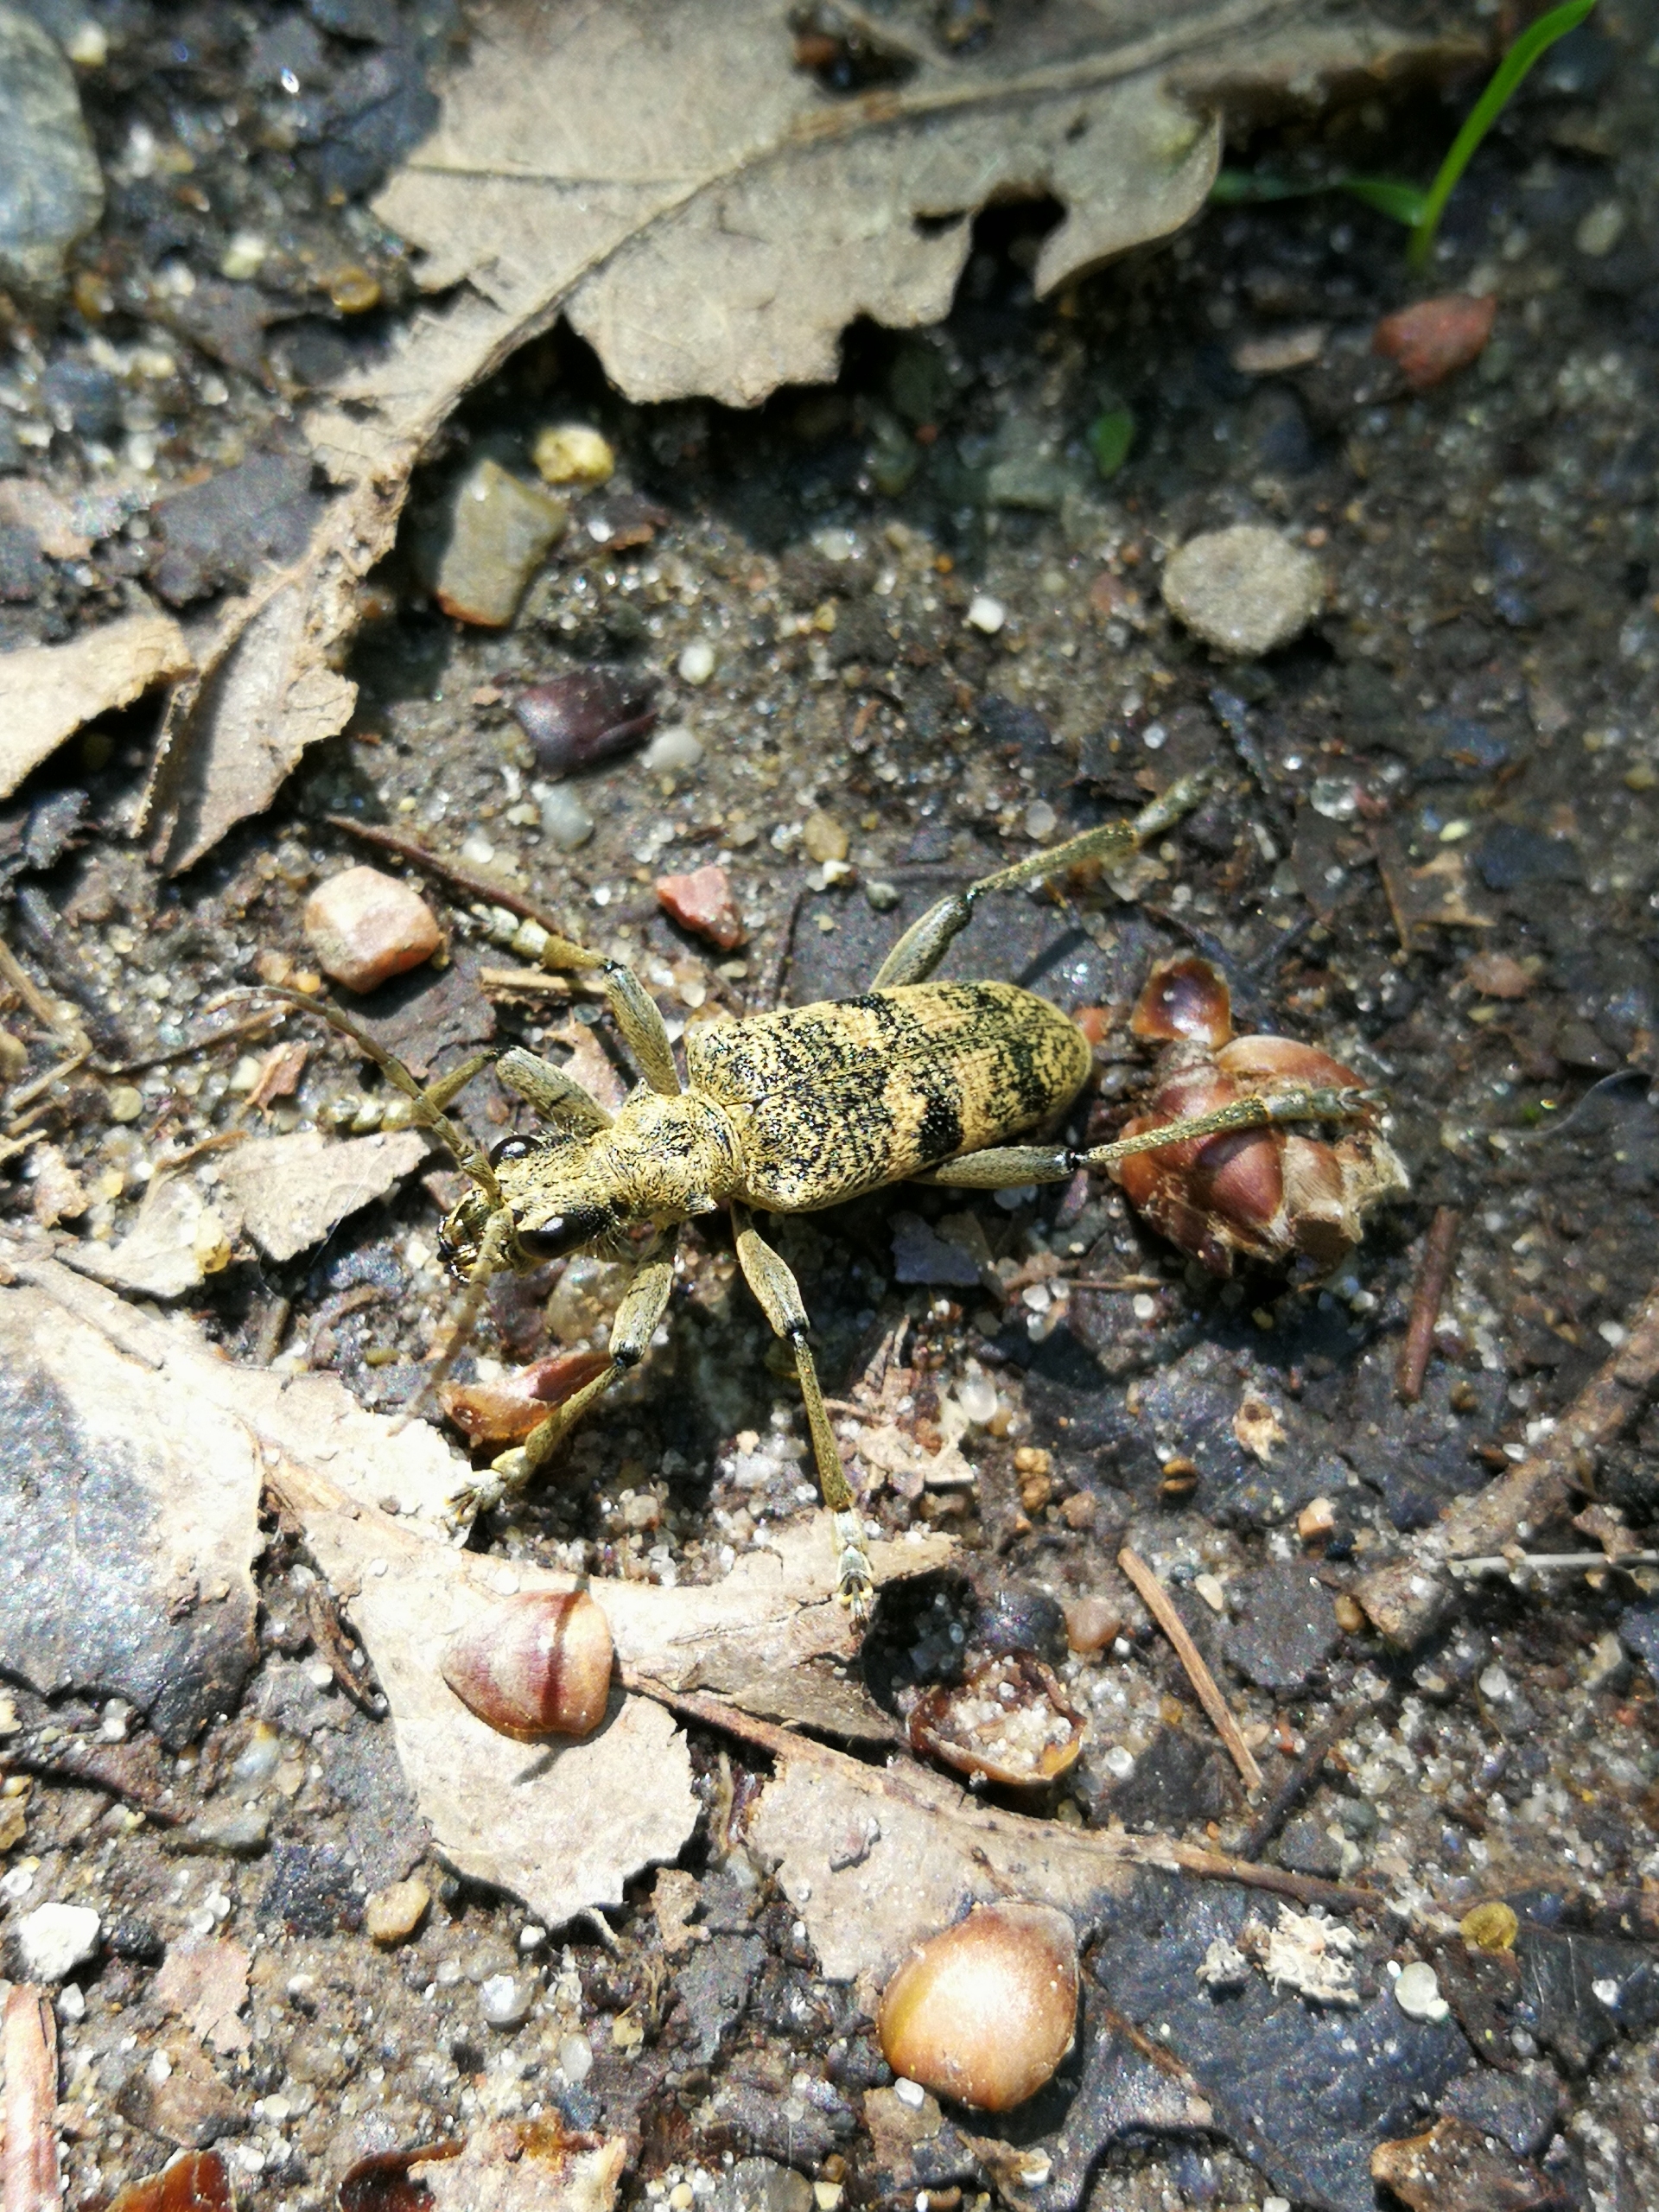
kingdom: Animalia
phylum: Arthropoda
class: Insecta
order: Coleoptera
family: Cerambycidae
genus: Rhagium
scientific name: Rhagium mordax
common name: Blankplettet tandbuk
